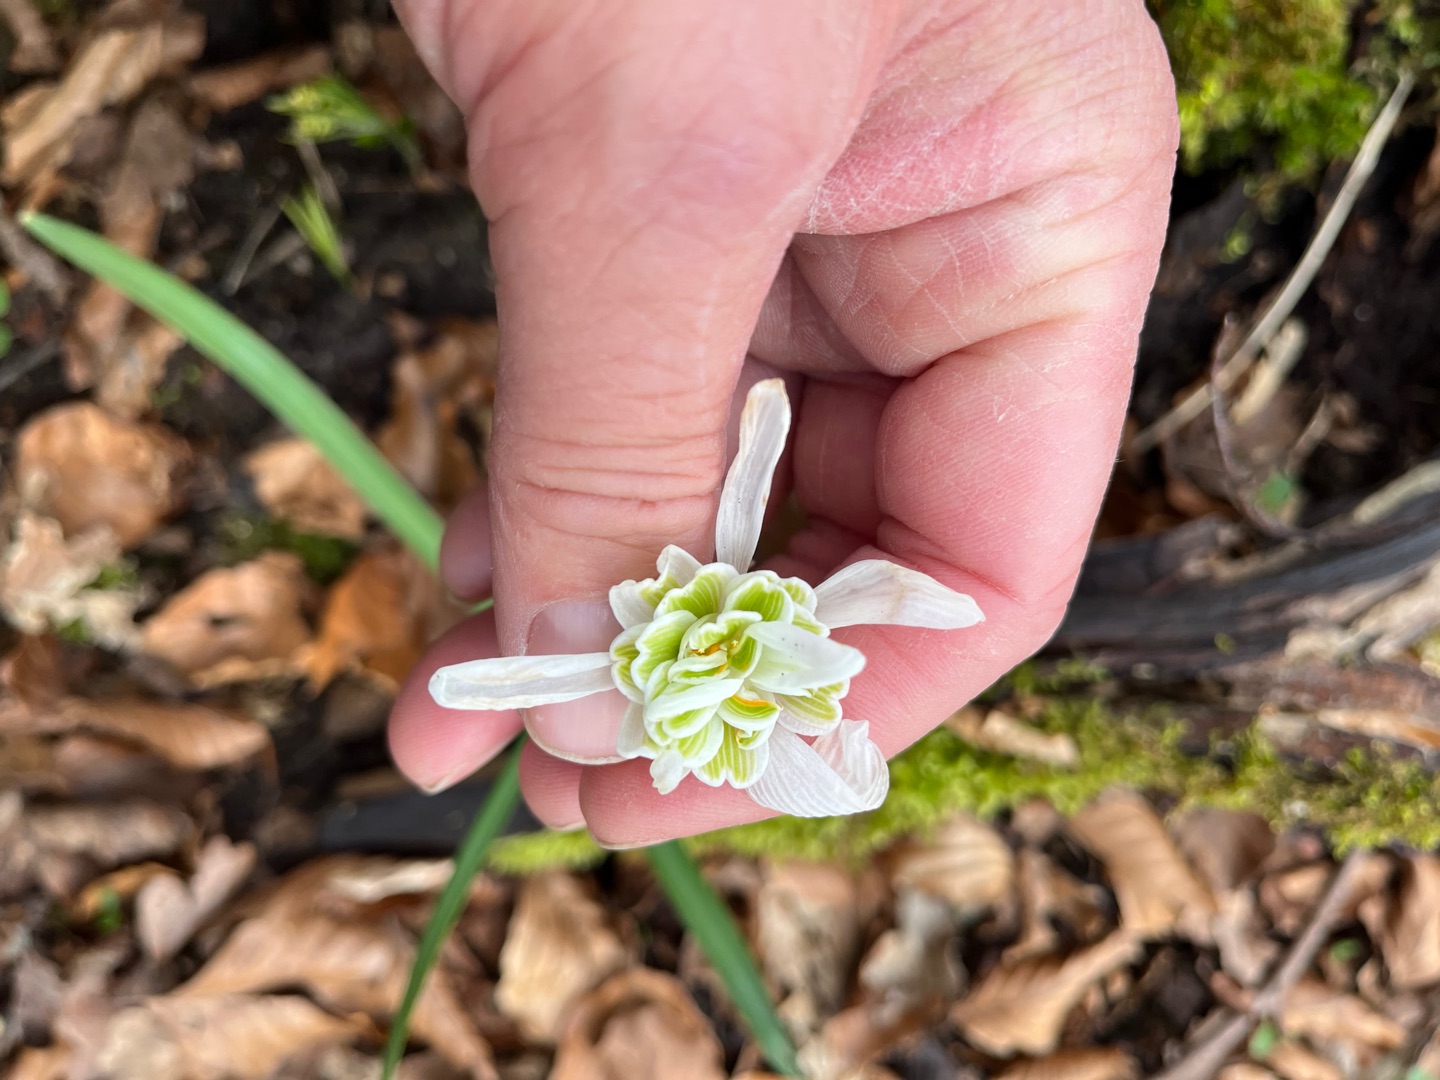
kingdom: Plantae
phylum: Tracheophyta
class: Liliopsida
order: Asparagales
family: Amaryllidaceae
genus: Galanthus
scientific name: Galanthus nivalis
